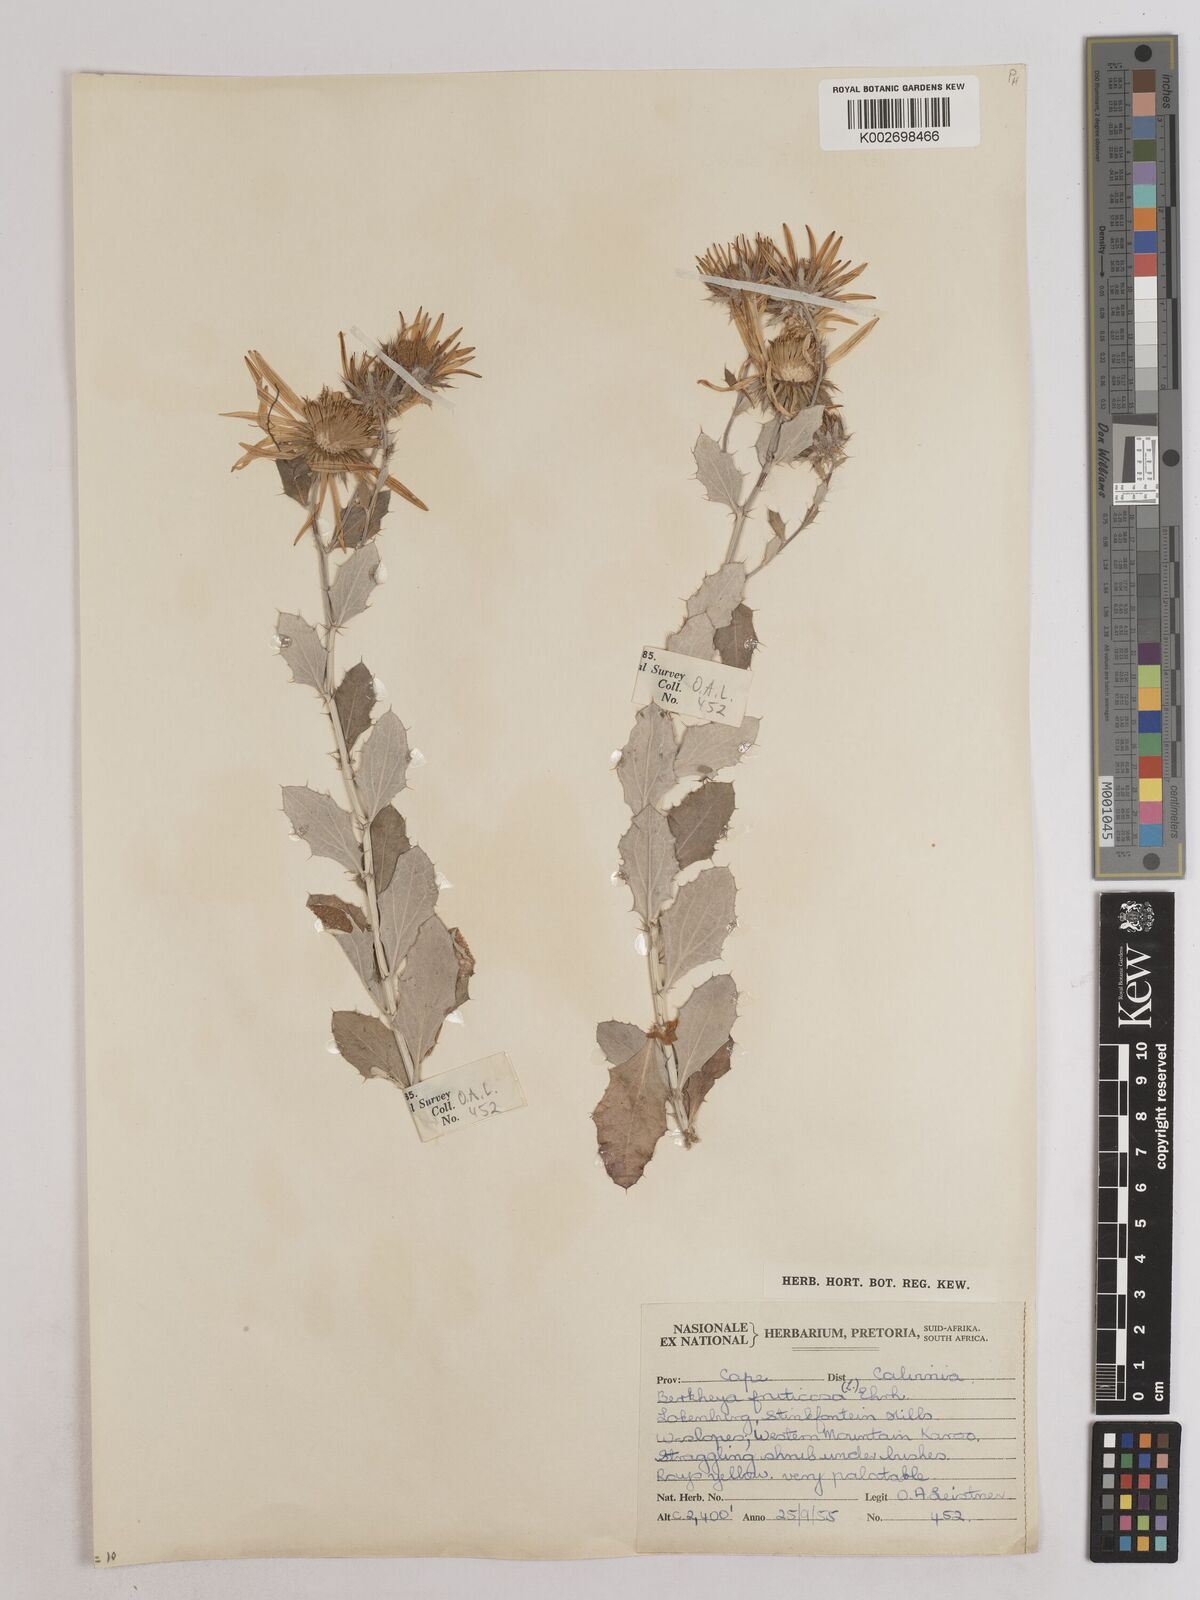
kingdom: Plantae
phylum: Tracheophyta
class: Magnoliopsida
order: Asterales
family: Asteraceae
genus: Berkheya
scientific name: Berkheya fruticosa
